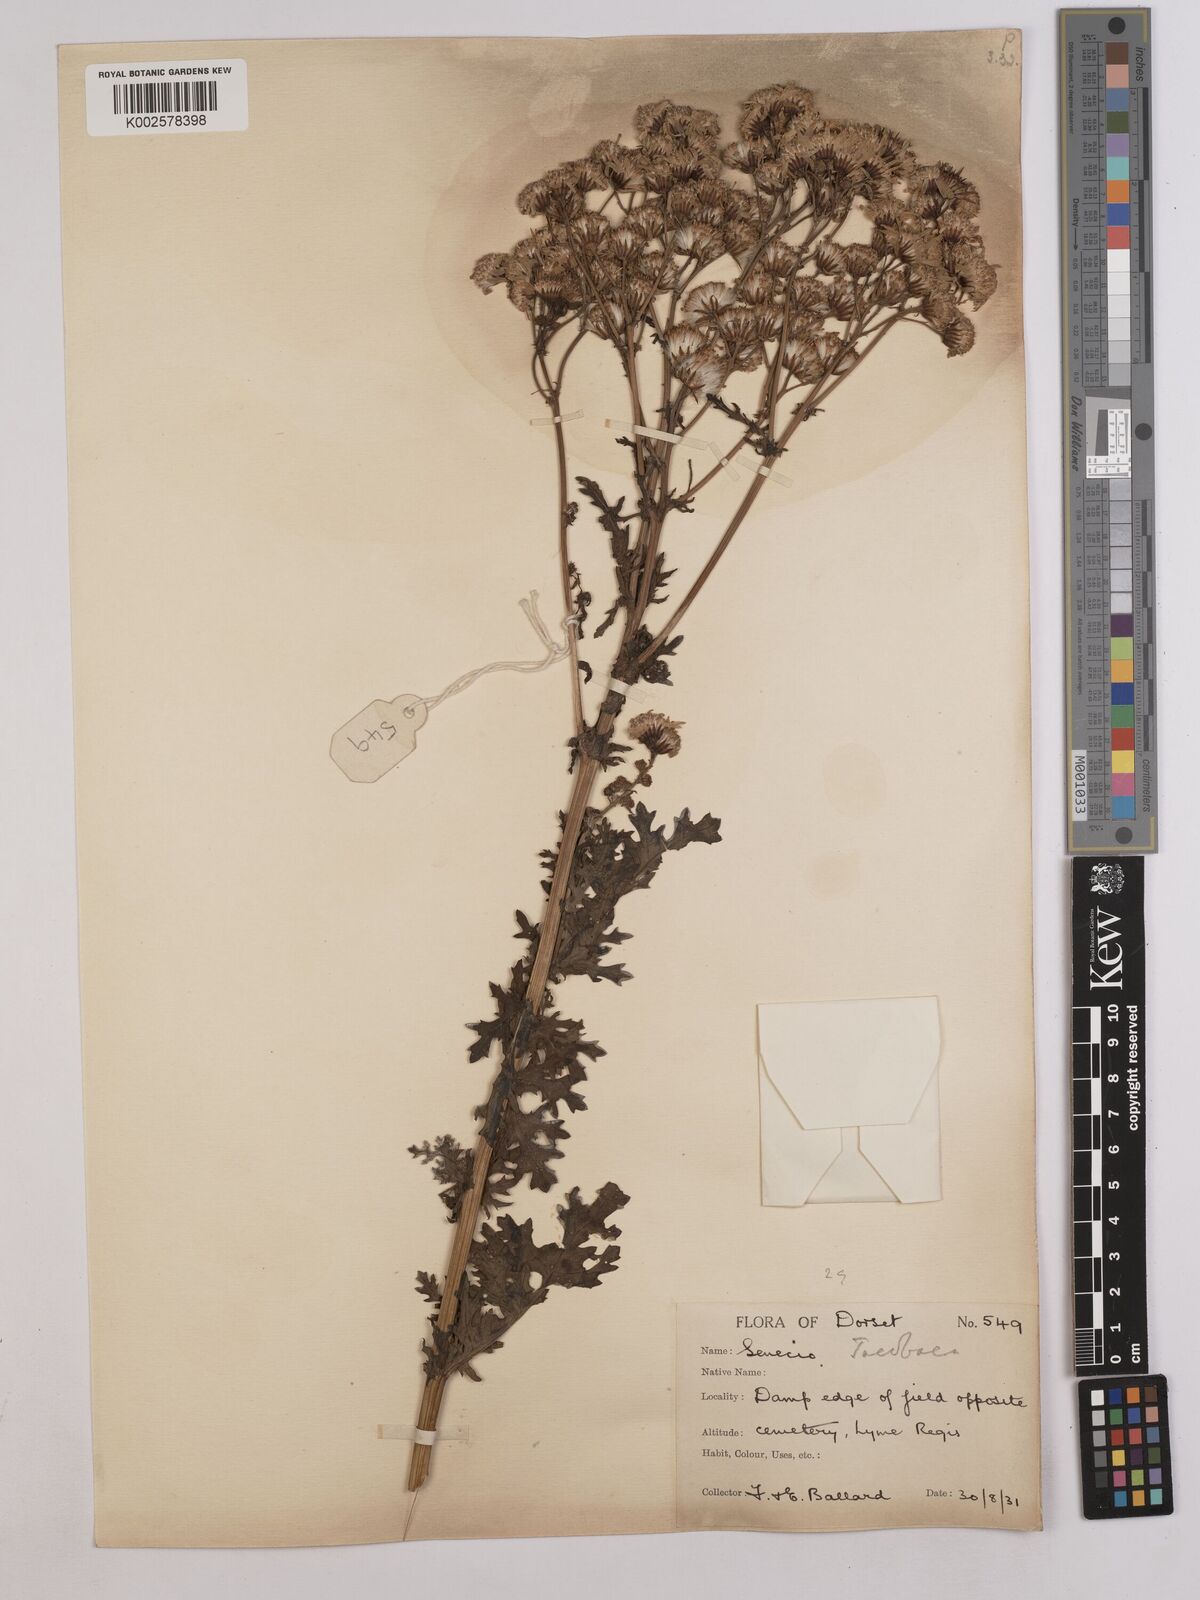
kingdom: Plantae
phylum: Tracheophyta
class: Magnoliopsida
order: Asterales
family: Asteraceae
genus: Jacobaea
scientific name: Jacobaea vulgaris
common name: Stinking willie
